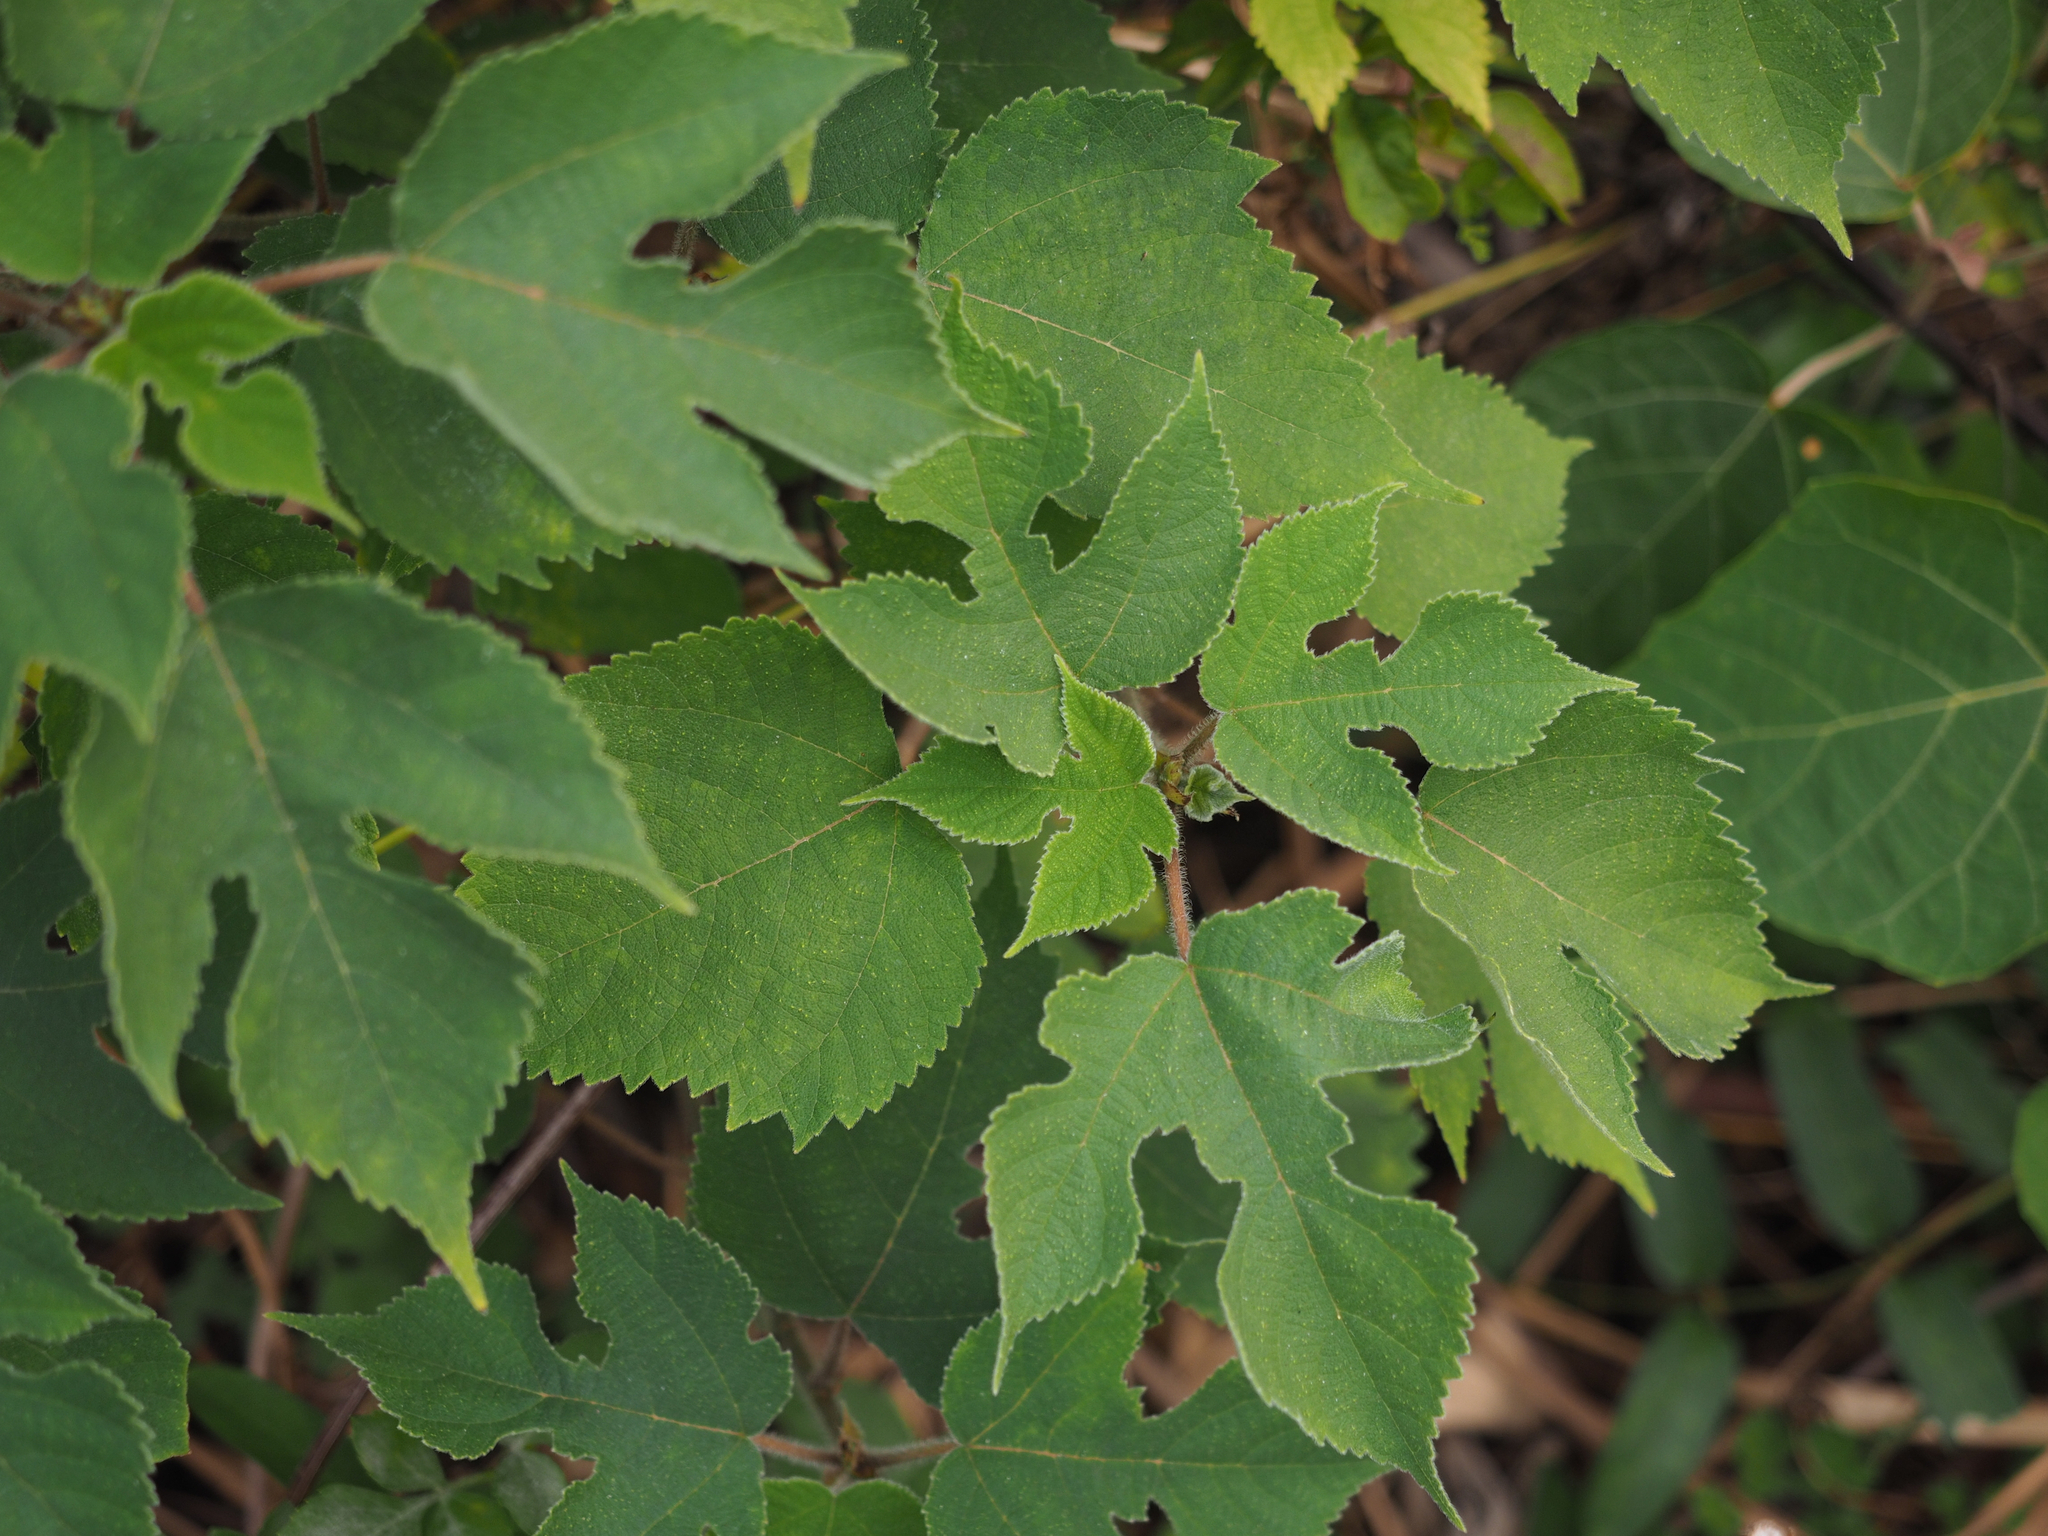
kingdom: Plantae
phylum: Tracheophyta
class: Magnoliopsida
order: Rosales
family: Moraceae
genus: Broussonetia
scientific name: Broussonetia papyrifera
